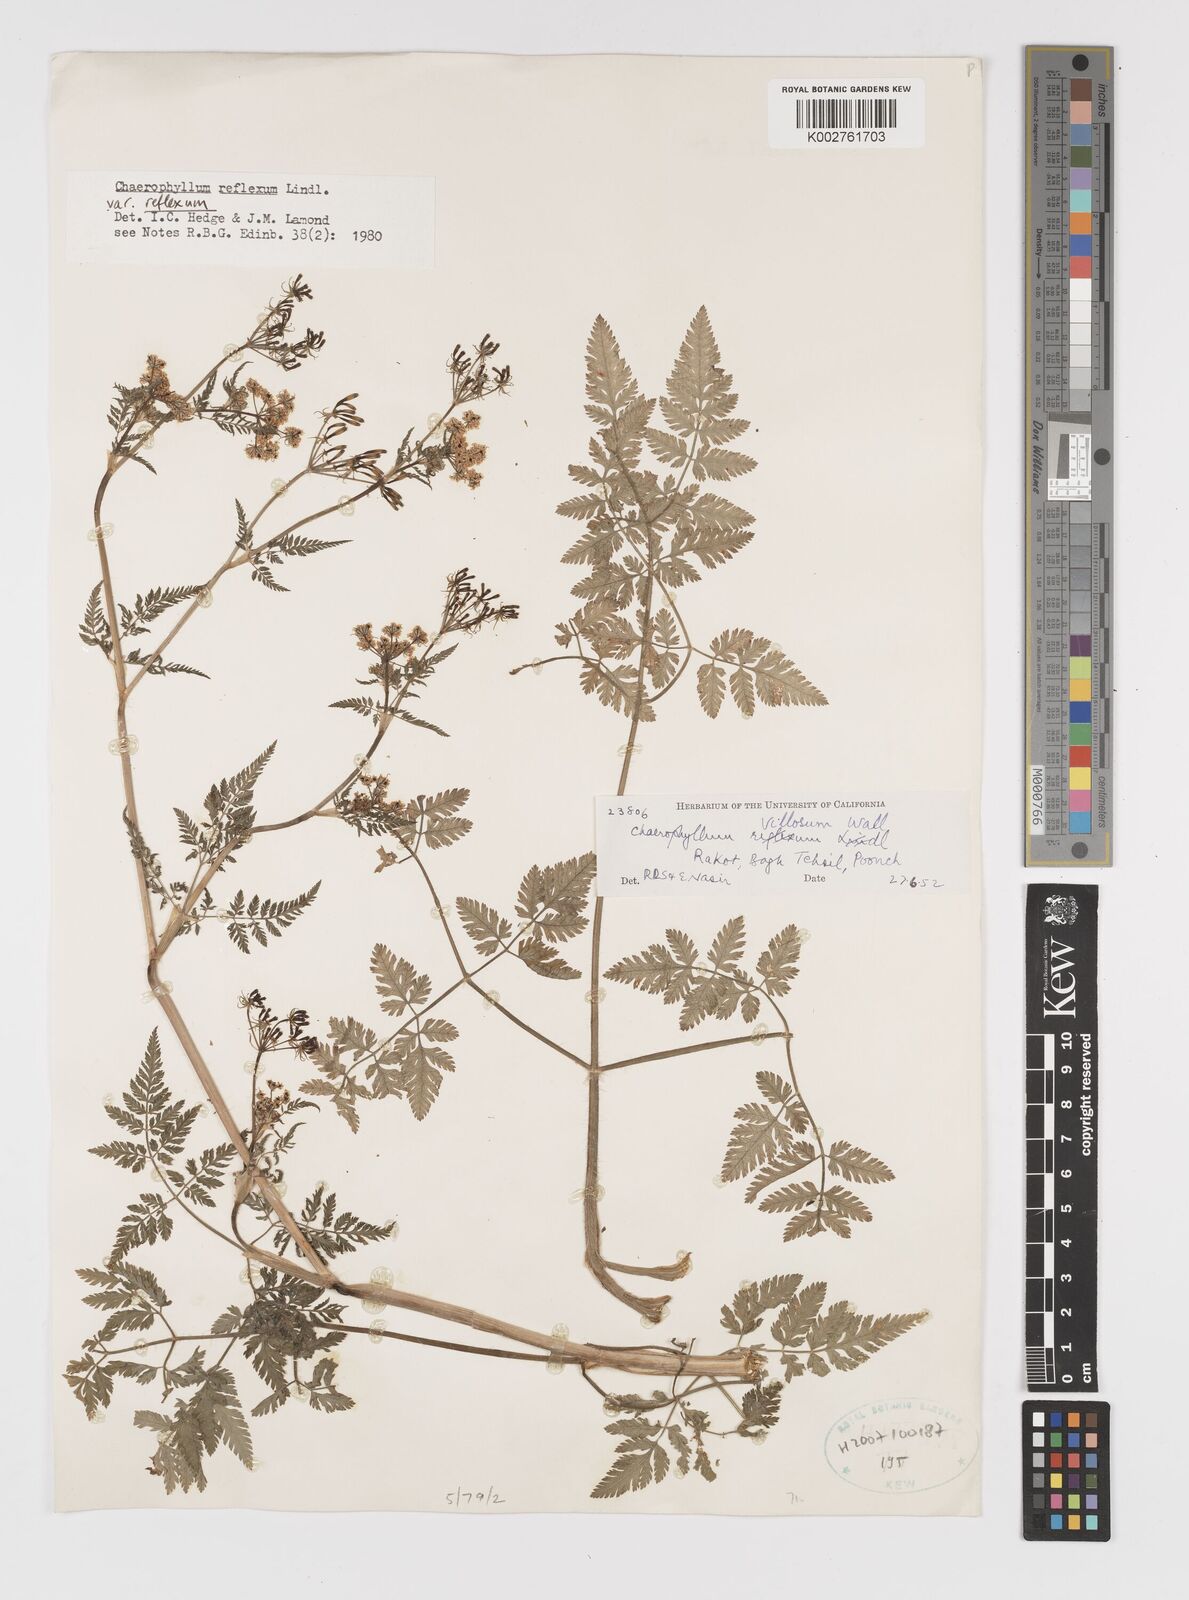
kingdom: Plantae
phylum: Tracheophyta
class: Magnoliopsida
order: Apiales
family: Apiaceae
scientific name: Apiaceae
